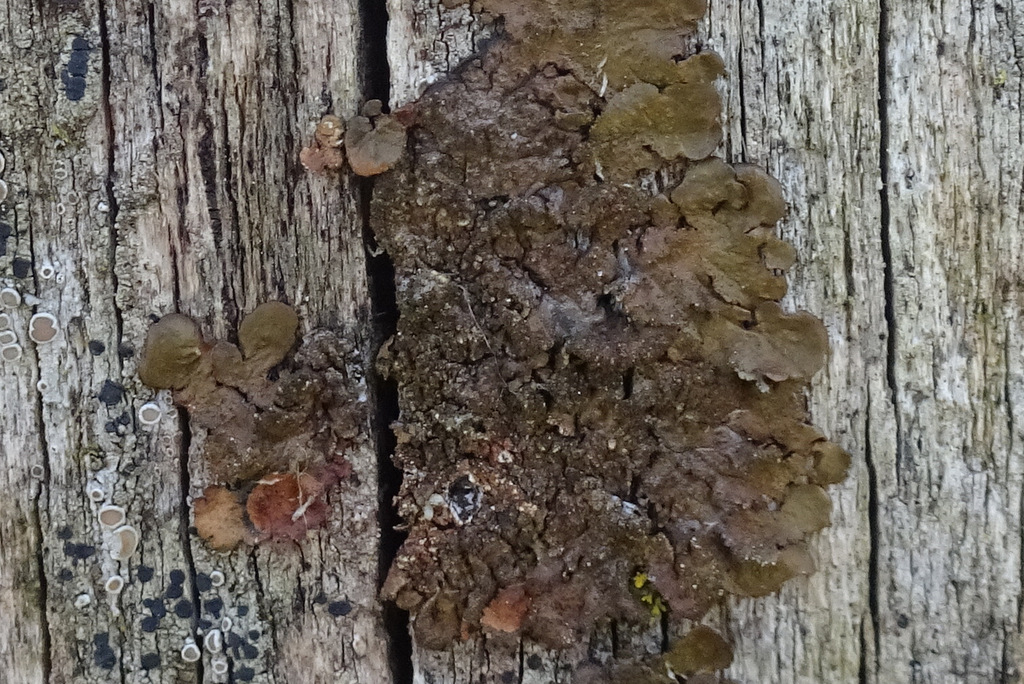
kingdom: Fungi
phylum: Ascomycota
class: Lecanoromycetes
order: Lecanorales
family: Parmeliaceae
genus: Melanelixia
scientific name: Melanelixia subaurifera
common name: guldpudret skållav
